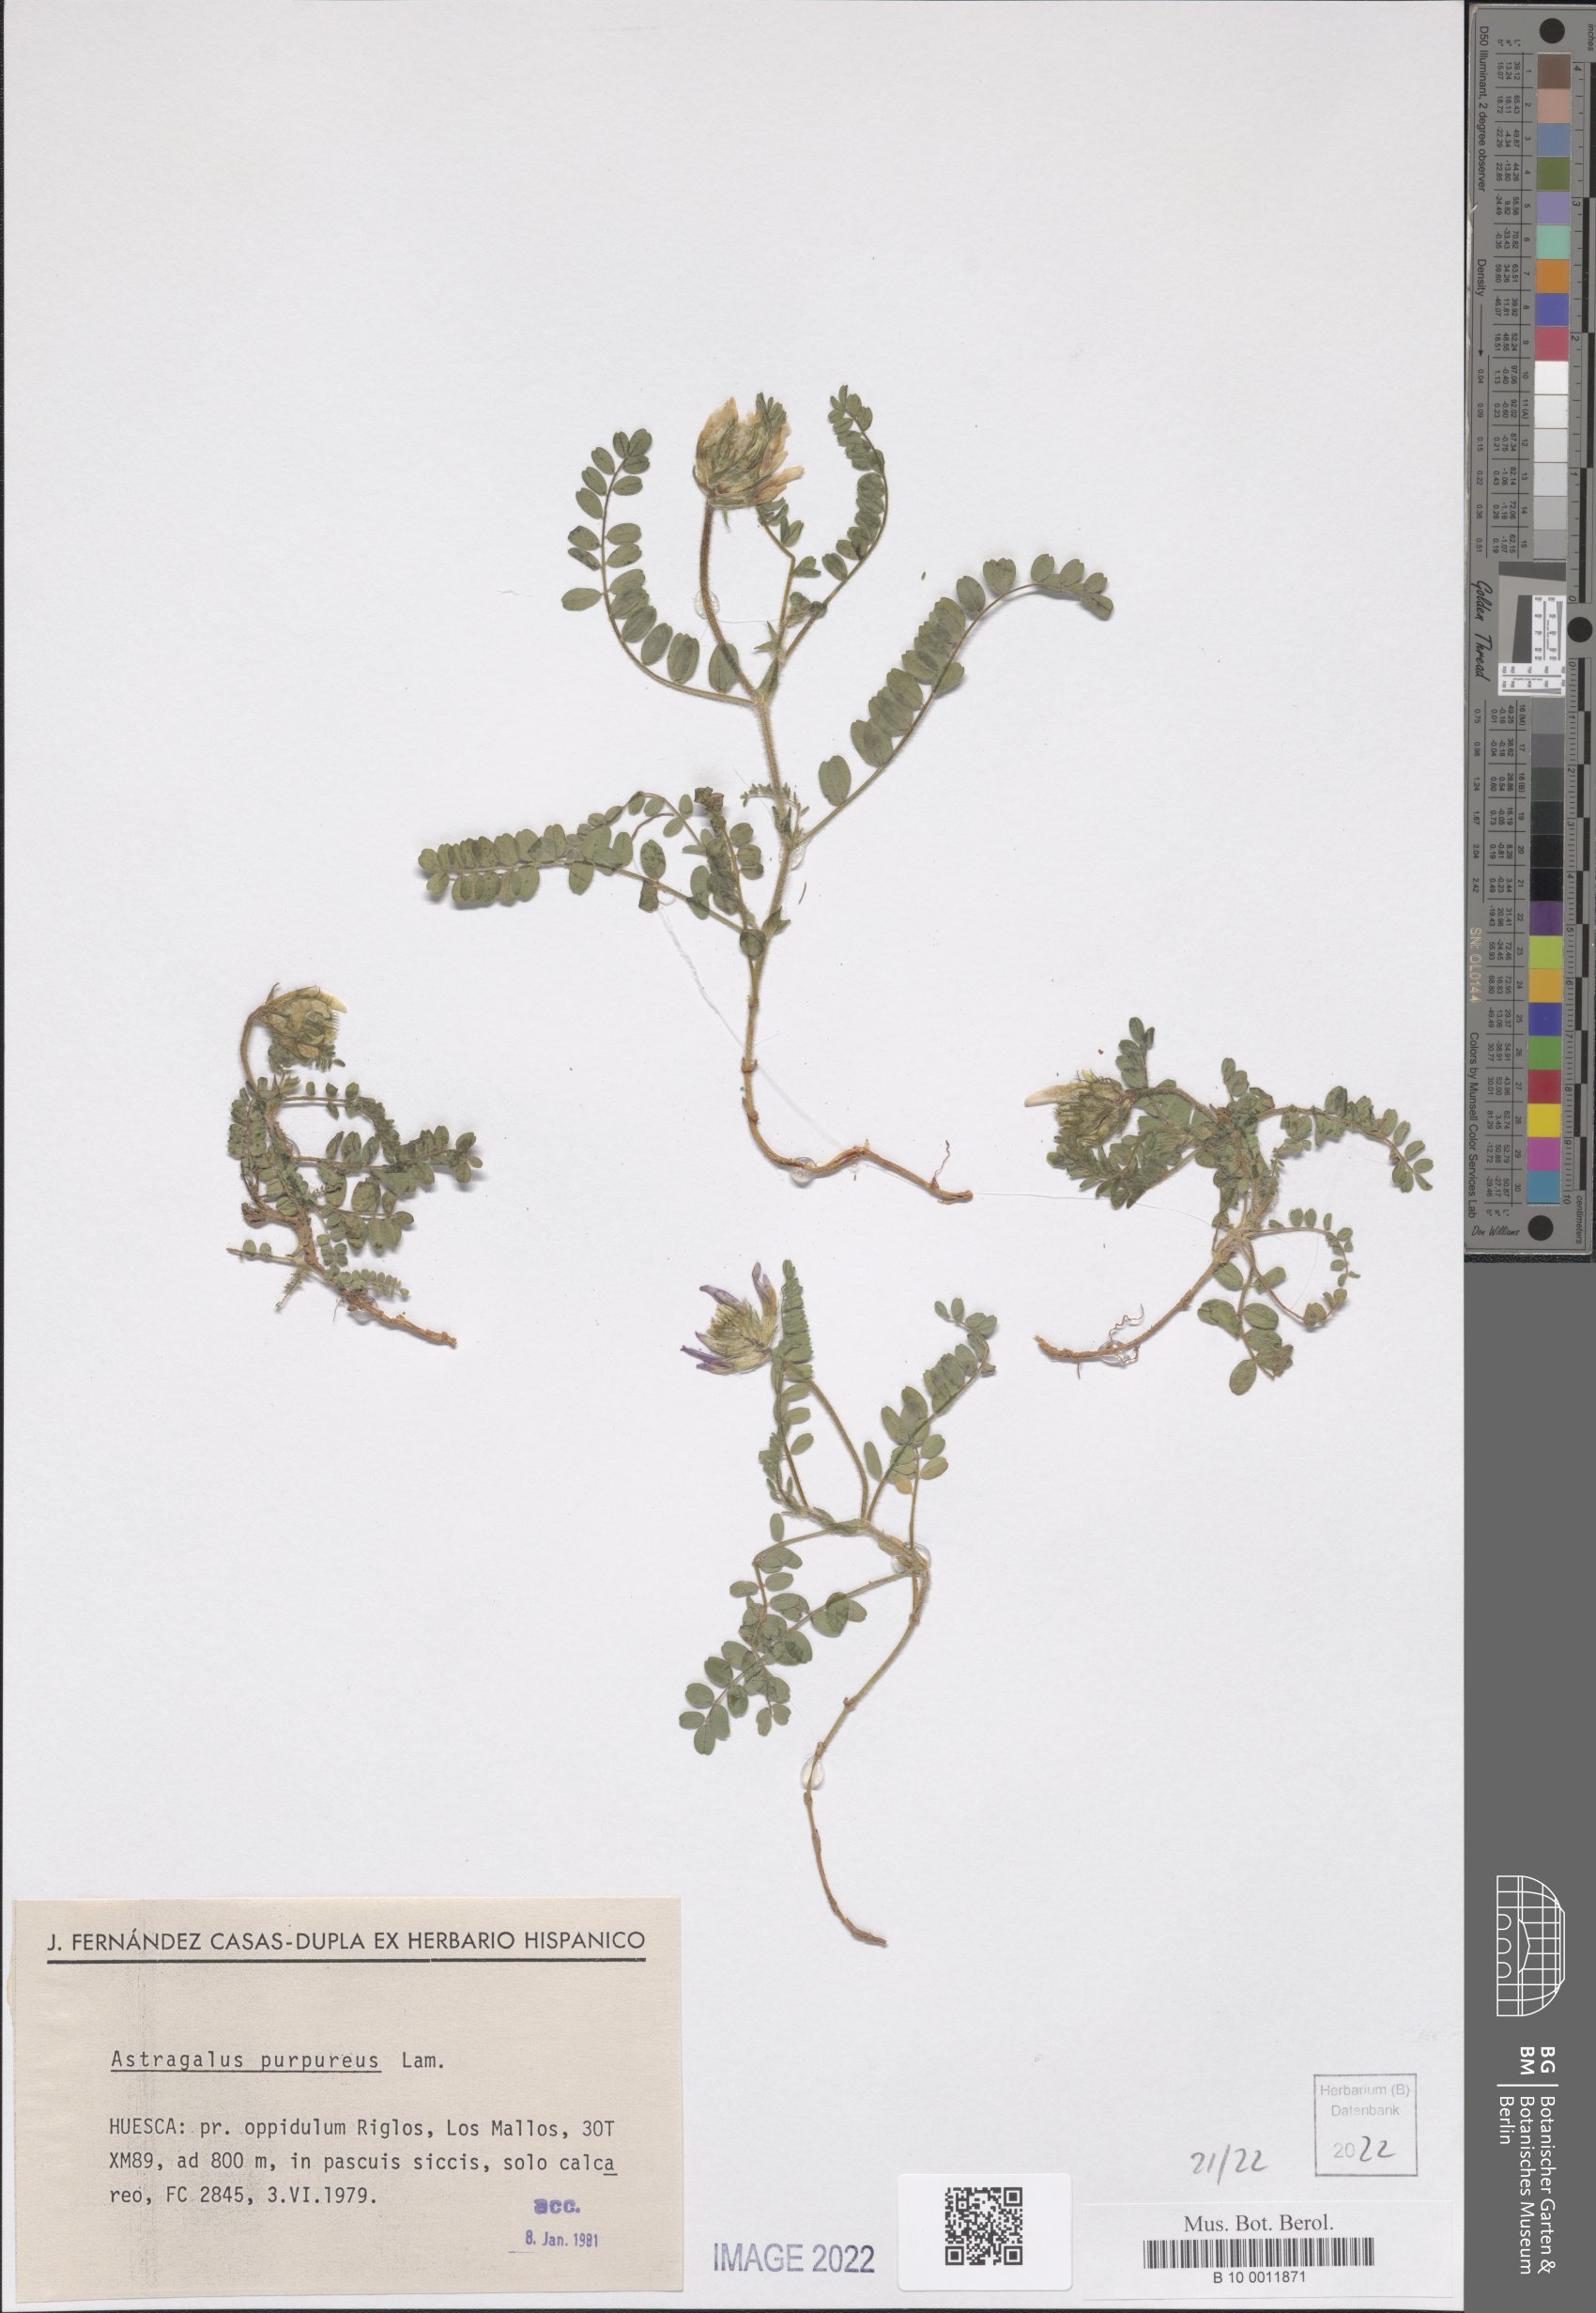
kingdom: Plantae
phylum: Tracheophyta
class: Magnoliopsida
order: Fabales
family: Fabaceae
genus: Astragalus
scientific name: Astragalus hypoglottis
